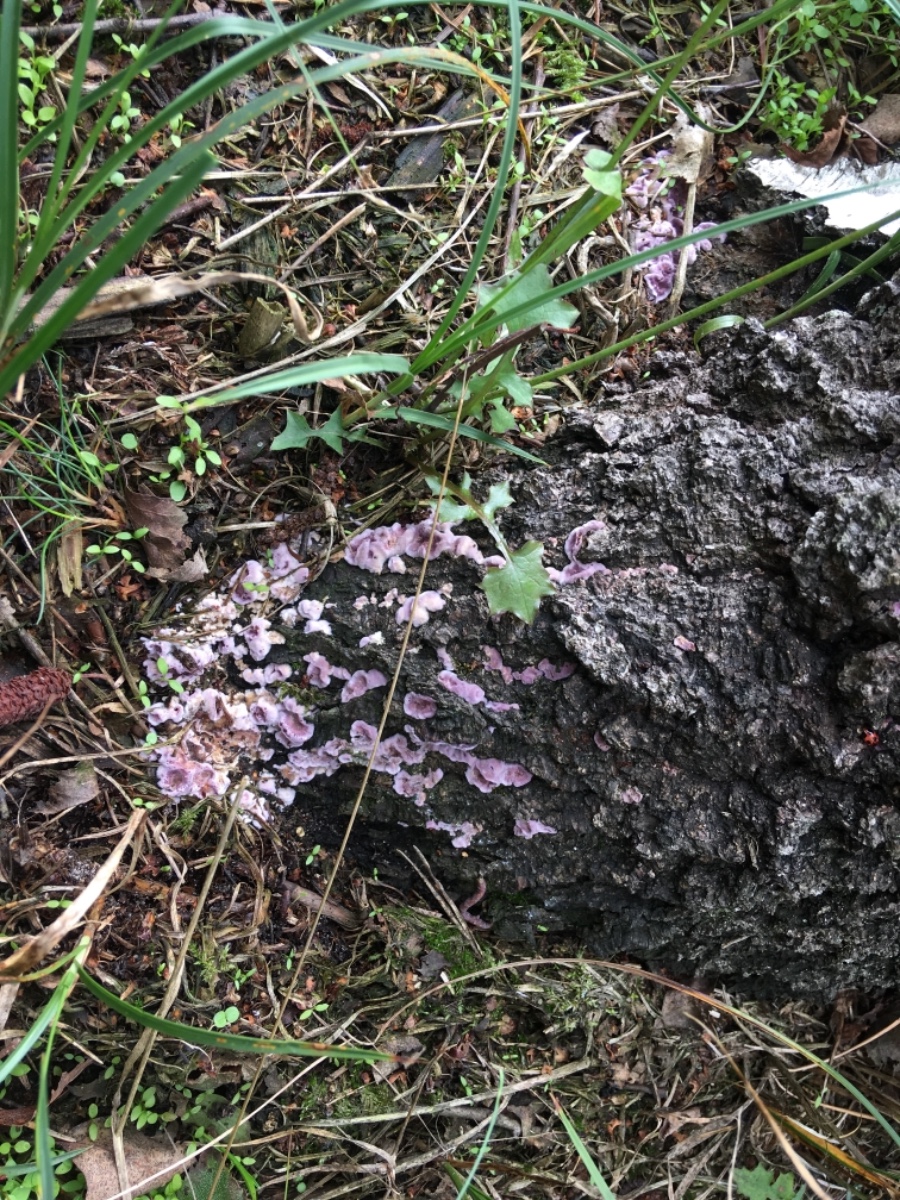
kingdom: Fungi
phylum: Basidiomycota
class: Agaricomycetes
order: Agaricales
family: Cyphellaceae
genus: Chondrostereum
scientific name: Chondrostereum purpureum
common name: purpurlædersvamp
